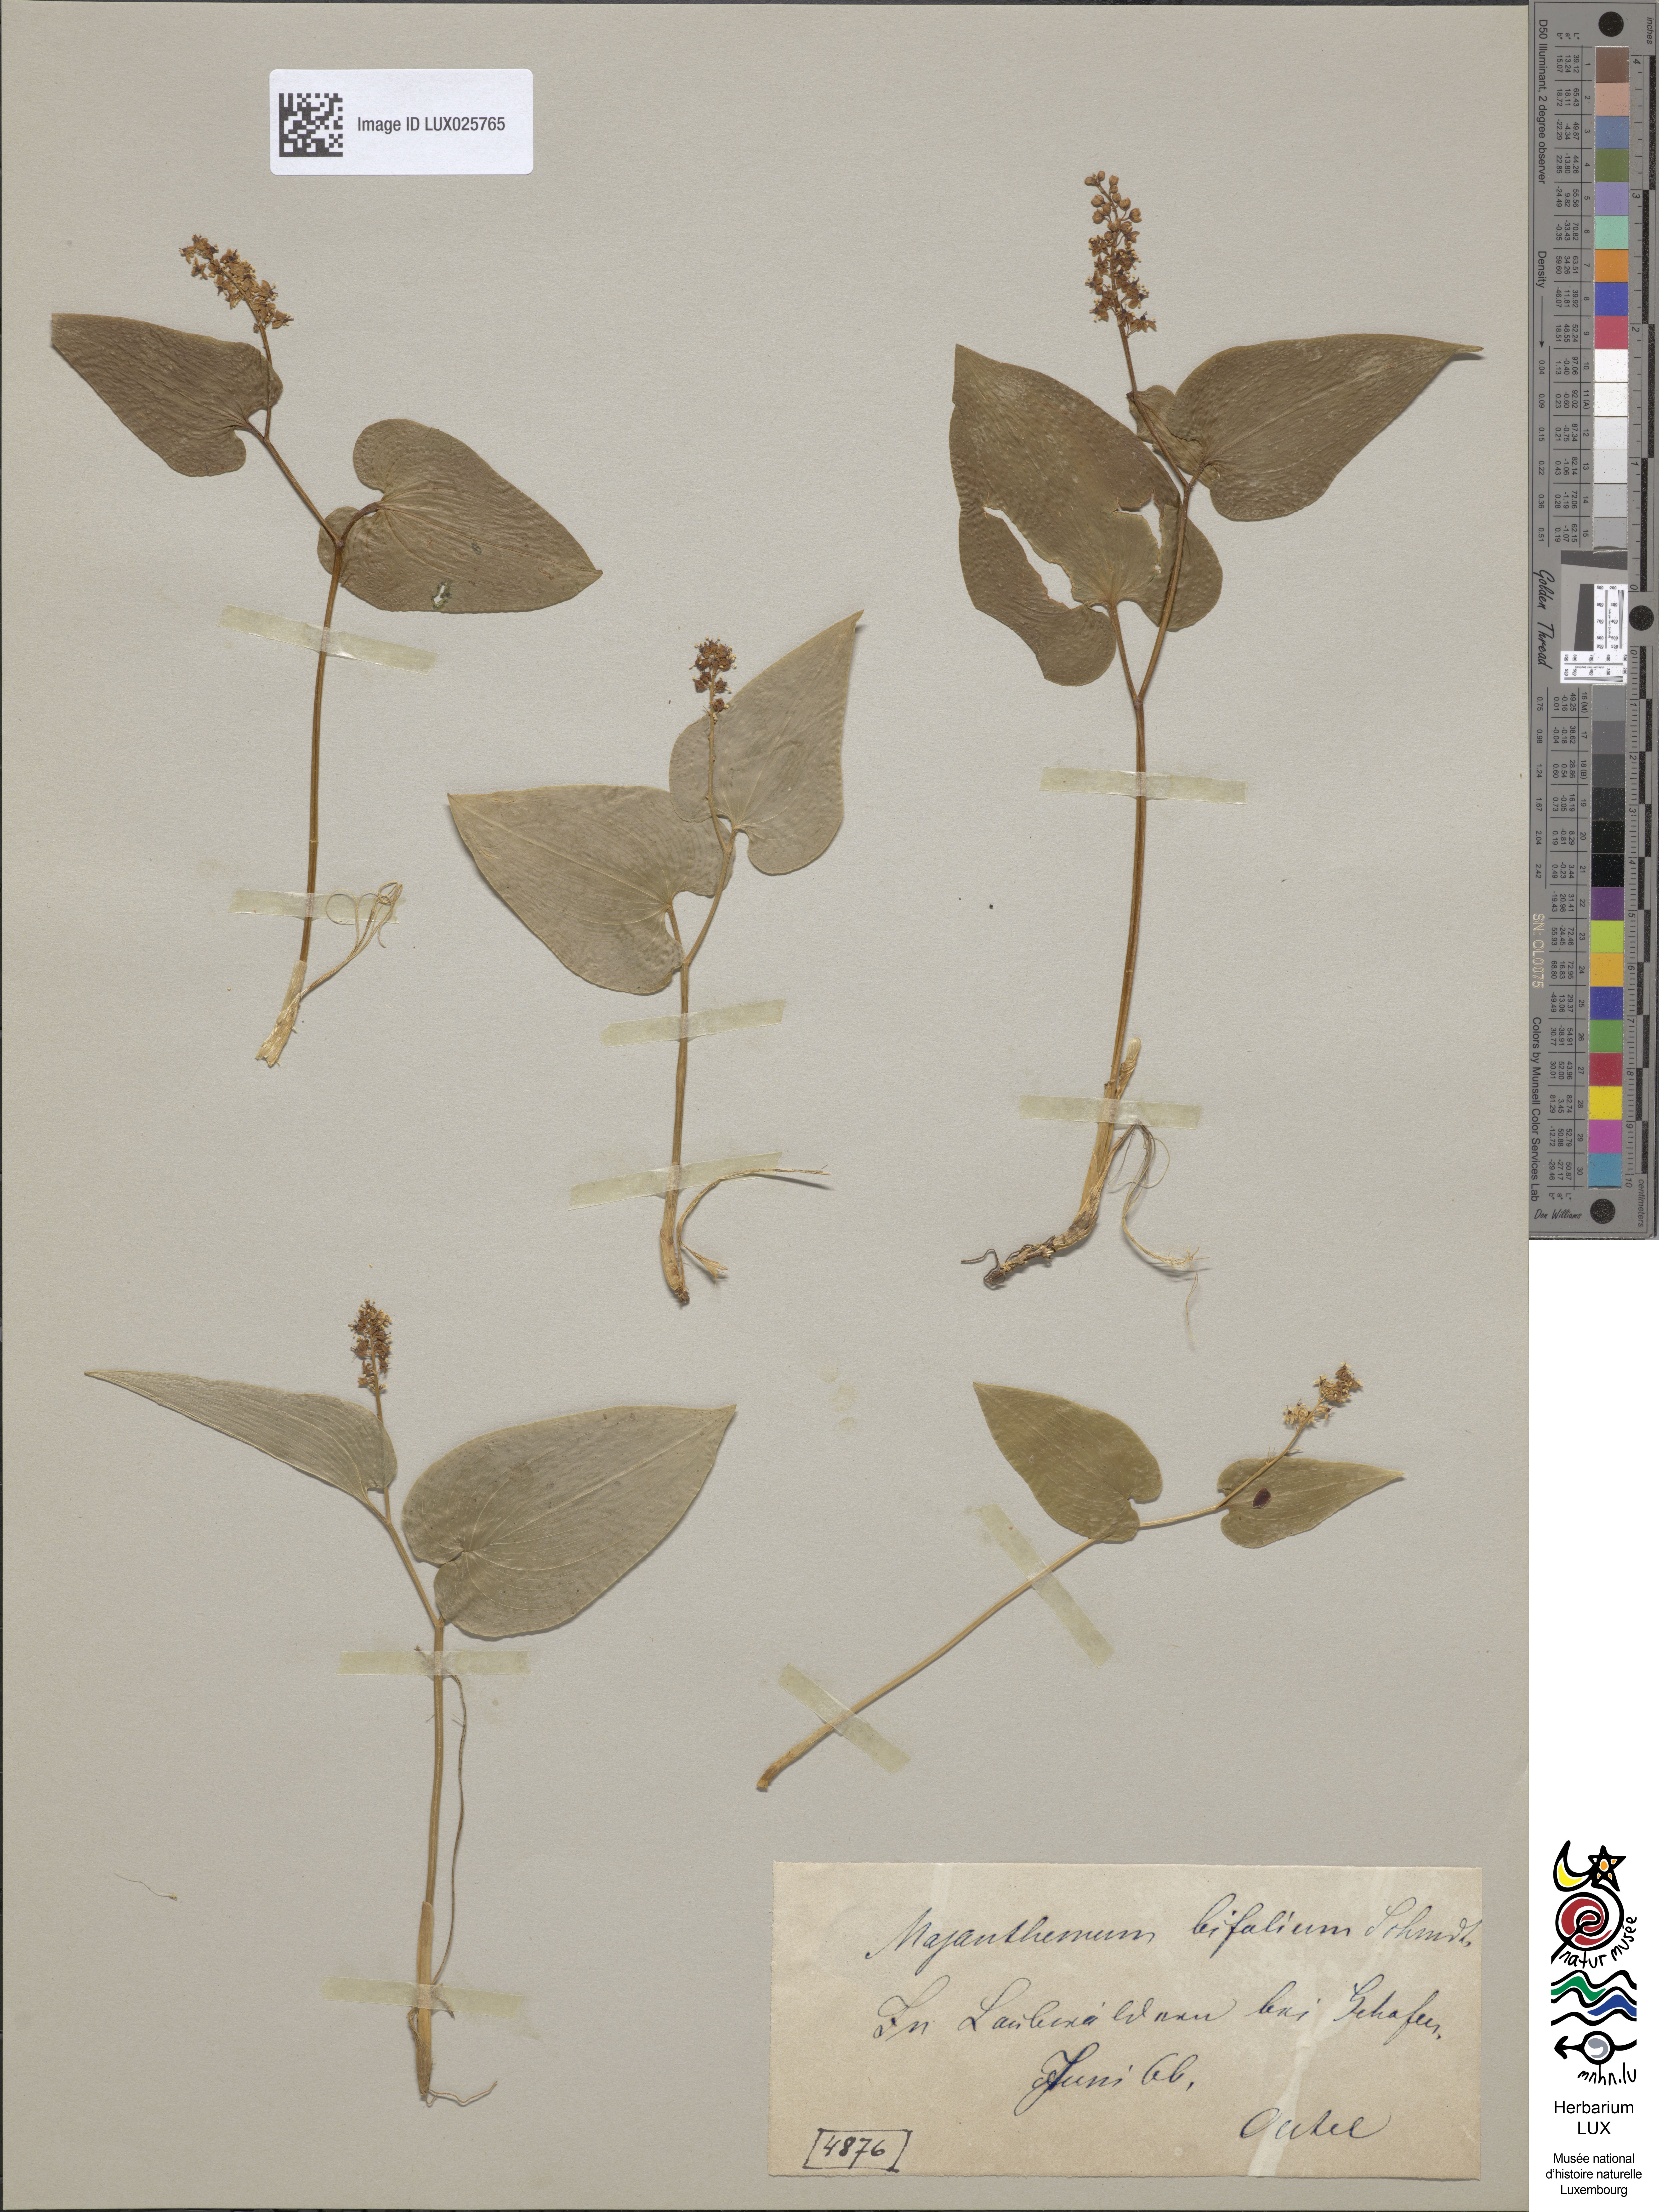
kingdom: Plantae
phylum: Tracheophyta
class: Liliopsida
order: Asparagales
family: Asparagaceae
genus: Maianthemum
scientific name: Maianthemum bifolium
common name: May lily
